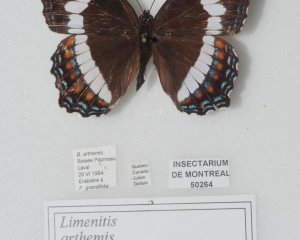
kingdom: Animalia
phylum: Arthropoda
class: Insecta
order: Lepidoptera
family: Nymphalidae
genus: Limenitis
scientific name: Limenitis arthemis
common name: Red-spotted Admiral
